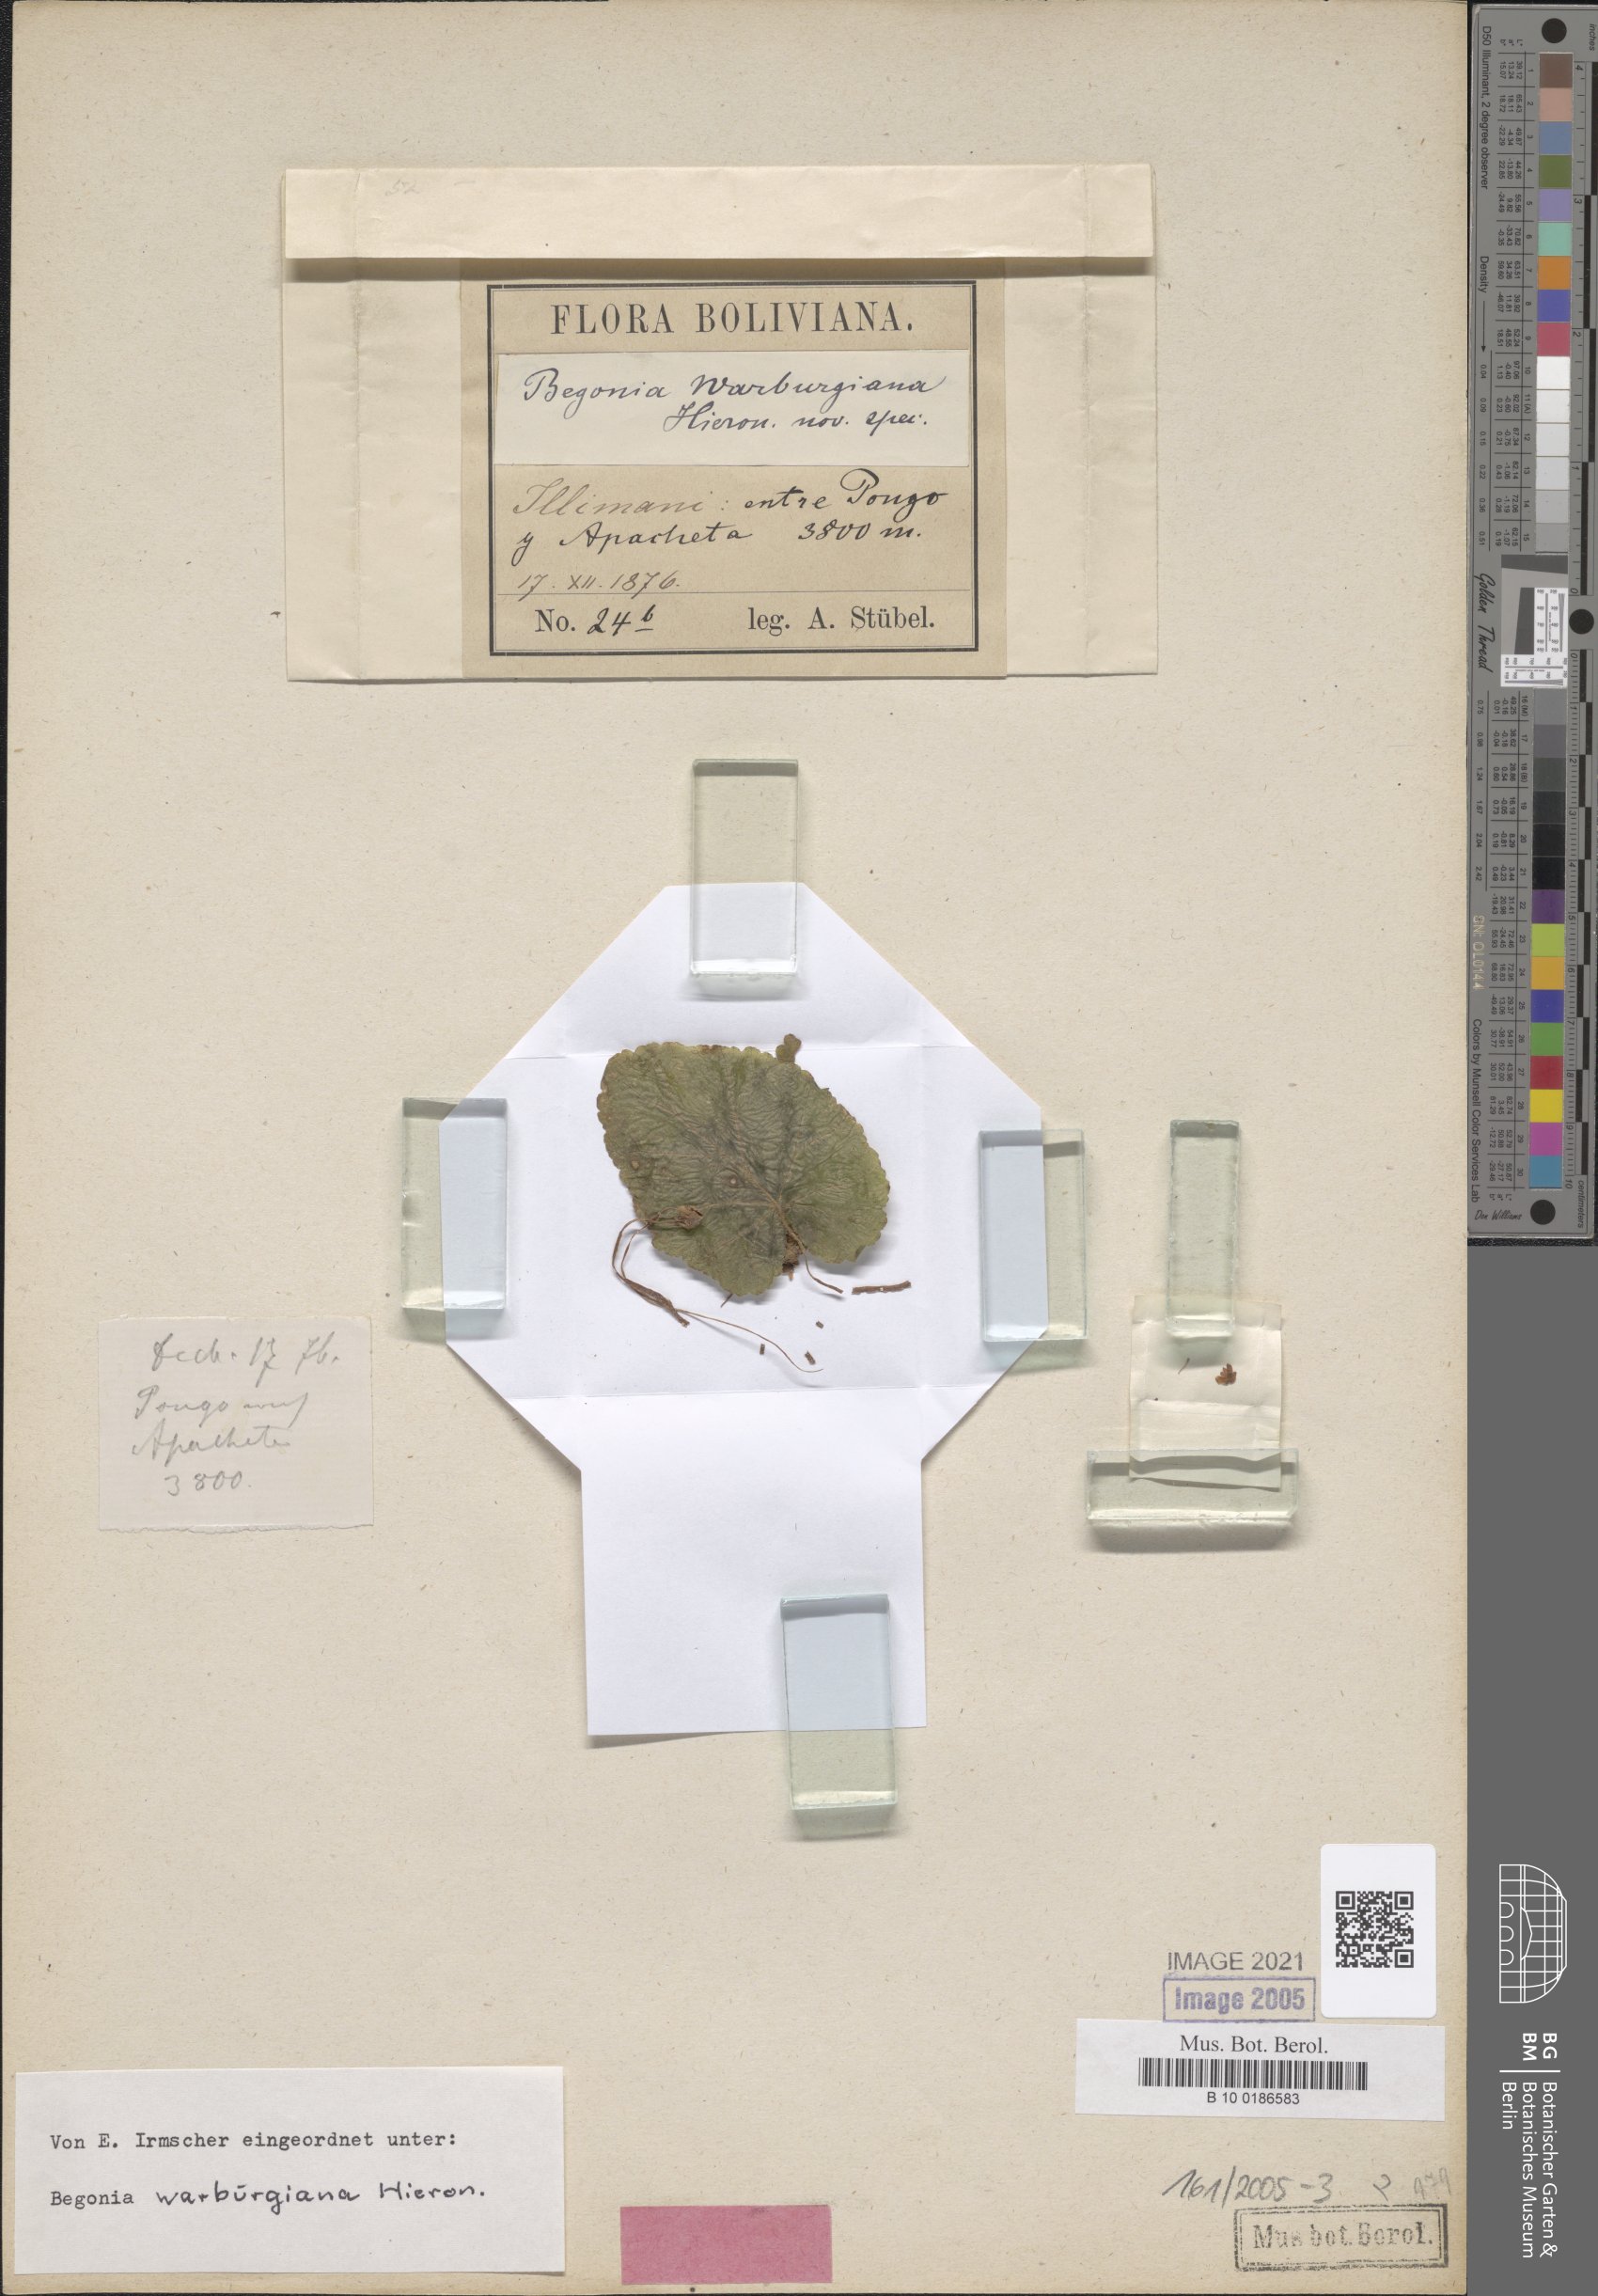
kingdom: Plantae
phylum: Tracheophyta
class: Magnoliopsida
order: Cucurbitales
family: Begoniaceae
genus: Begonia
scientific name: Begonia pleiopetala
